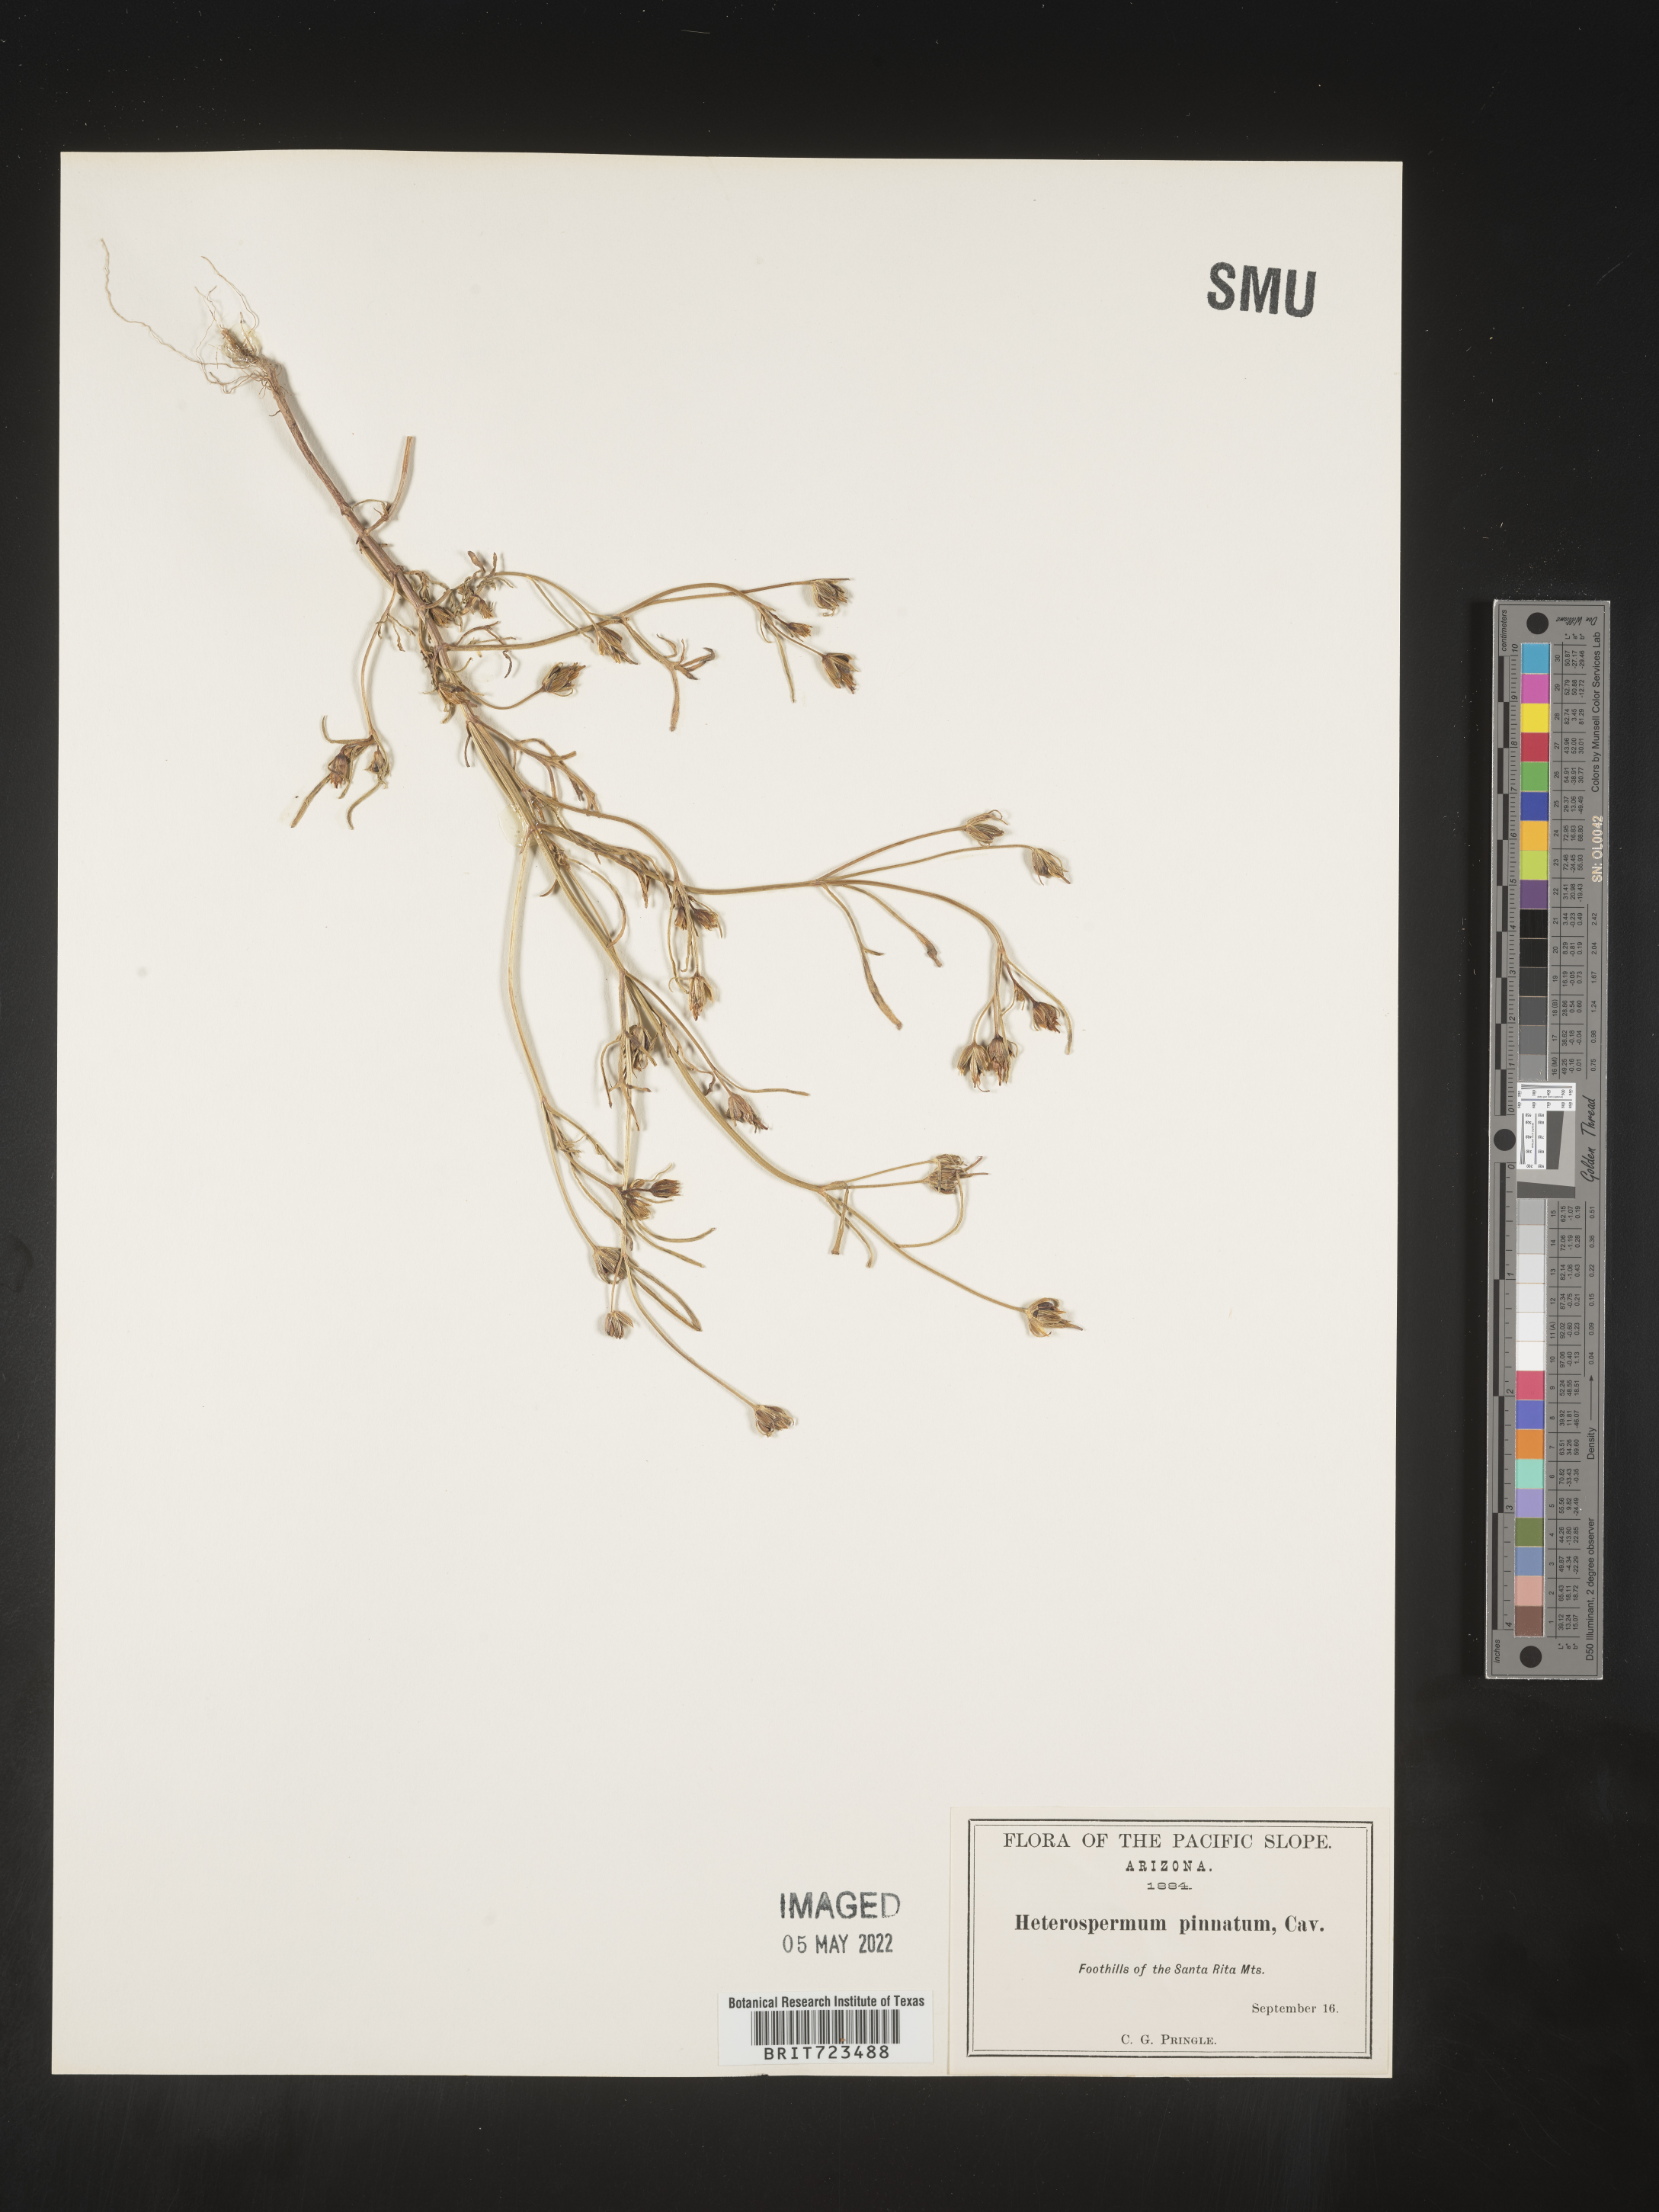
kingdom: Plantae
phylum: Tracheophyta
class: Magnoliopsida
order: Asterales
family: Asteraceae
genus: Heterosperma
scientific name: Heterosperma
